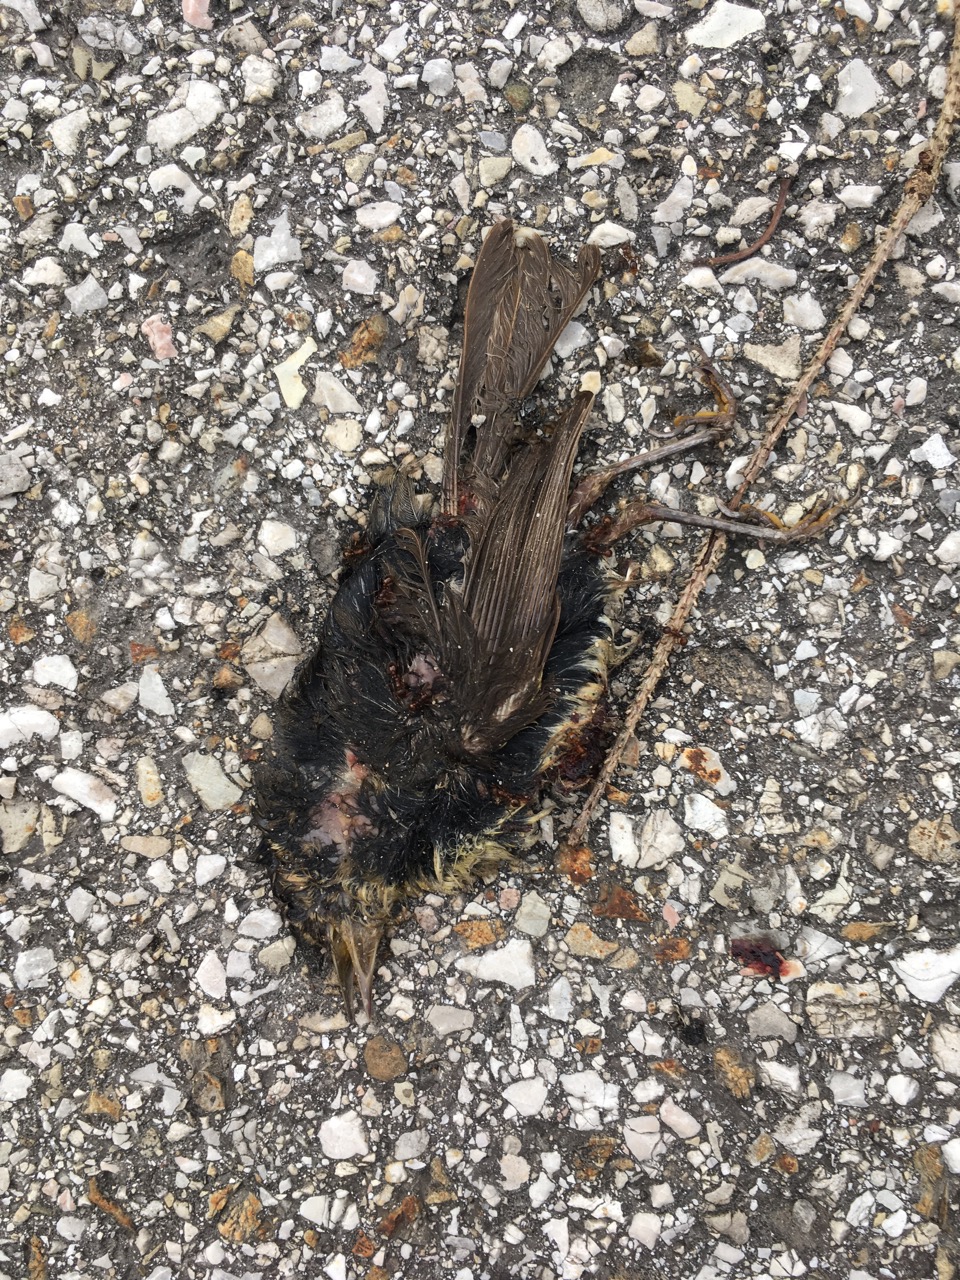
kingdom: Animalia
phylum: Chordata
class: Aves
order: Passeriformes
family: Turdidae
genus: Turdus
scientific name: Turdus merula
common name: Common blackbird
